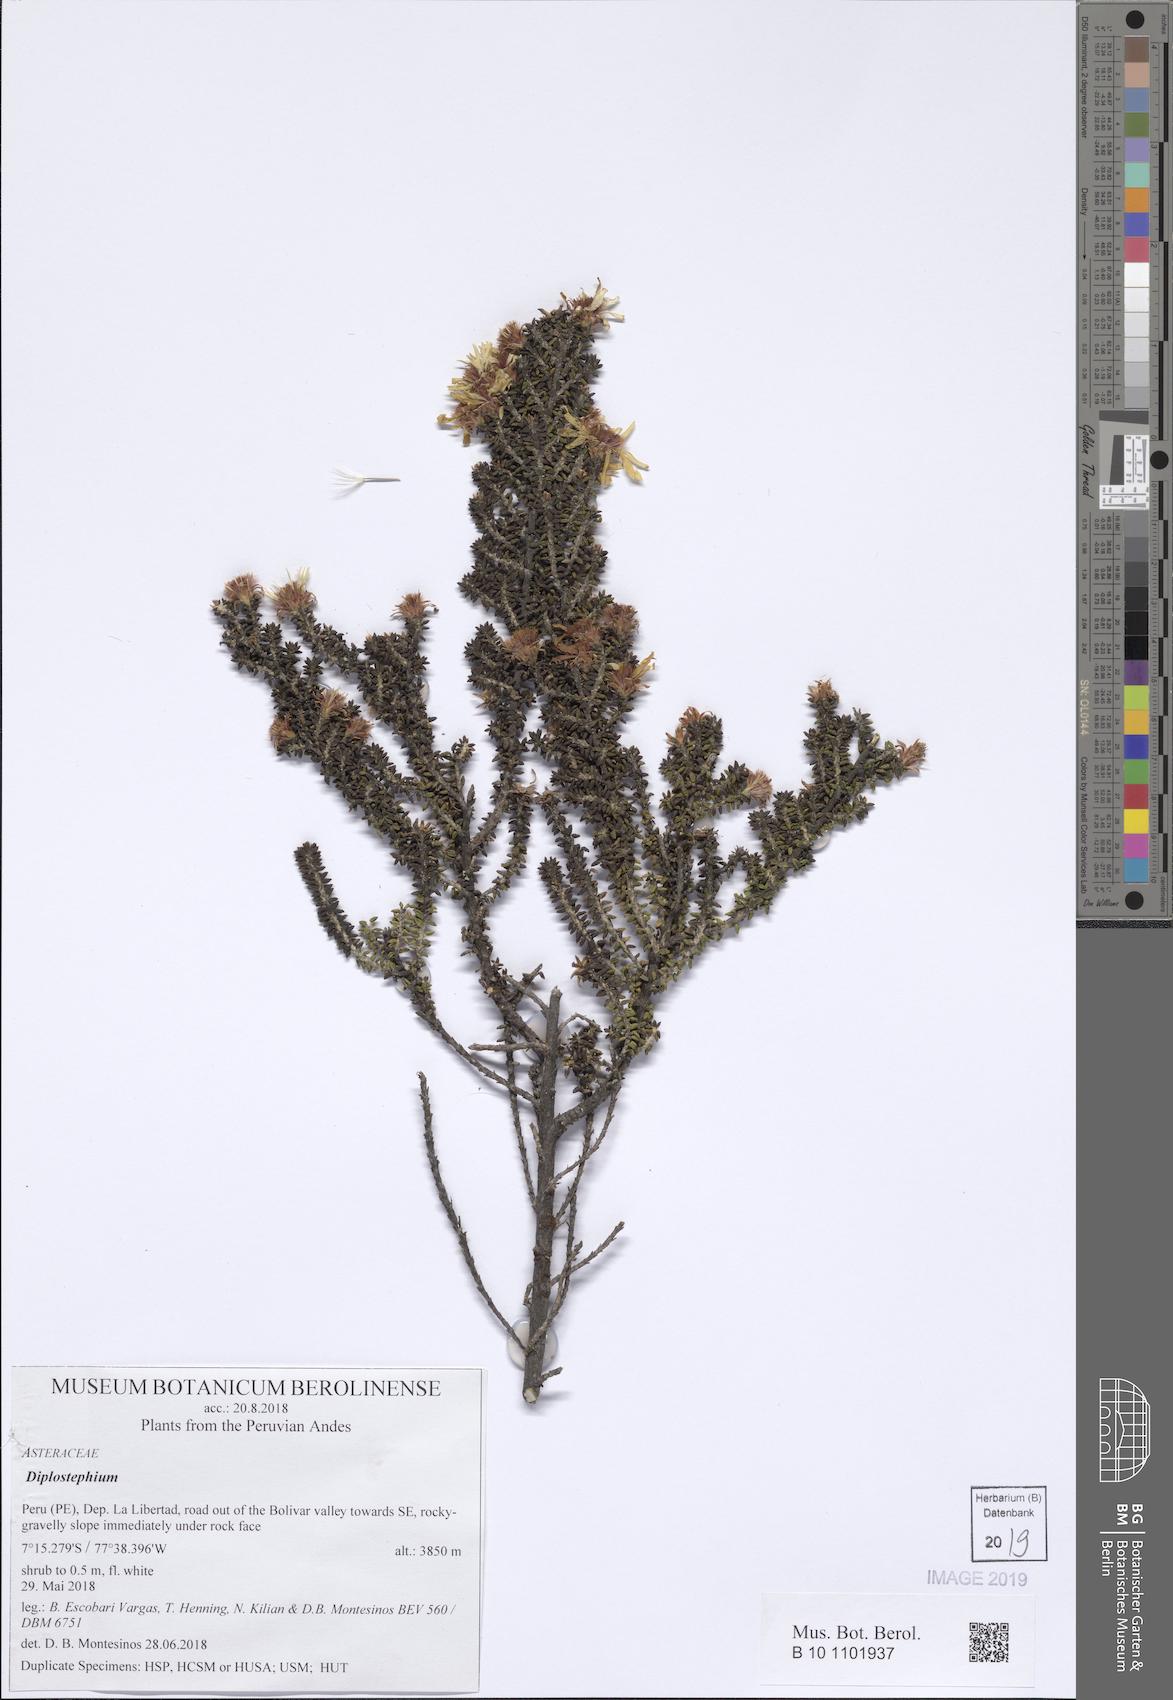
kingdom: Plantae
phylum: Tracheophyta
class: Magnoliopsida
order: Asterales
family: Asteraceae
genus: Diplostephium
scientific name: Diplostephium sagasteguii
